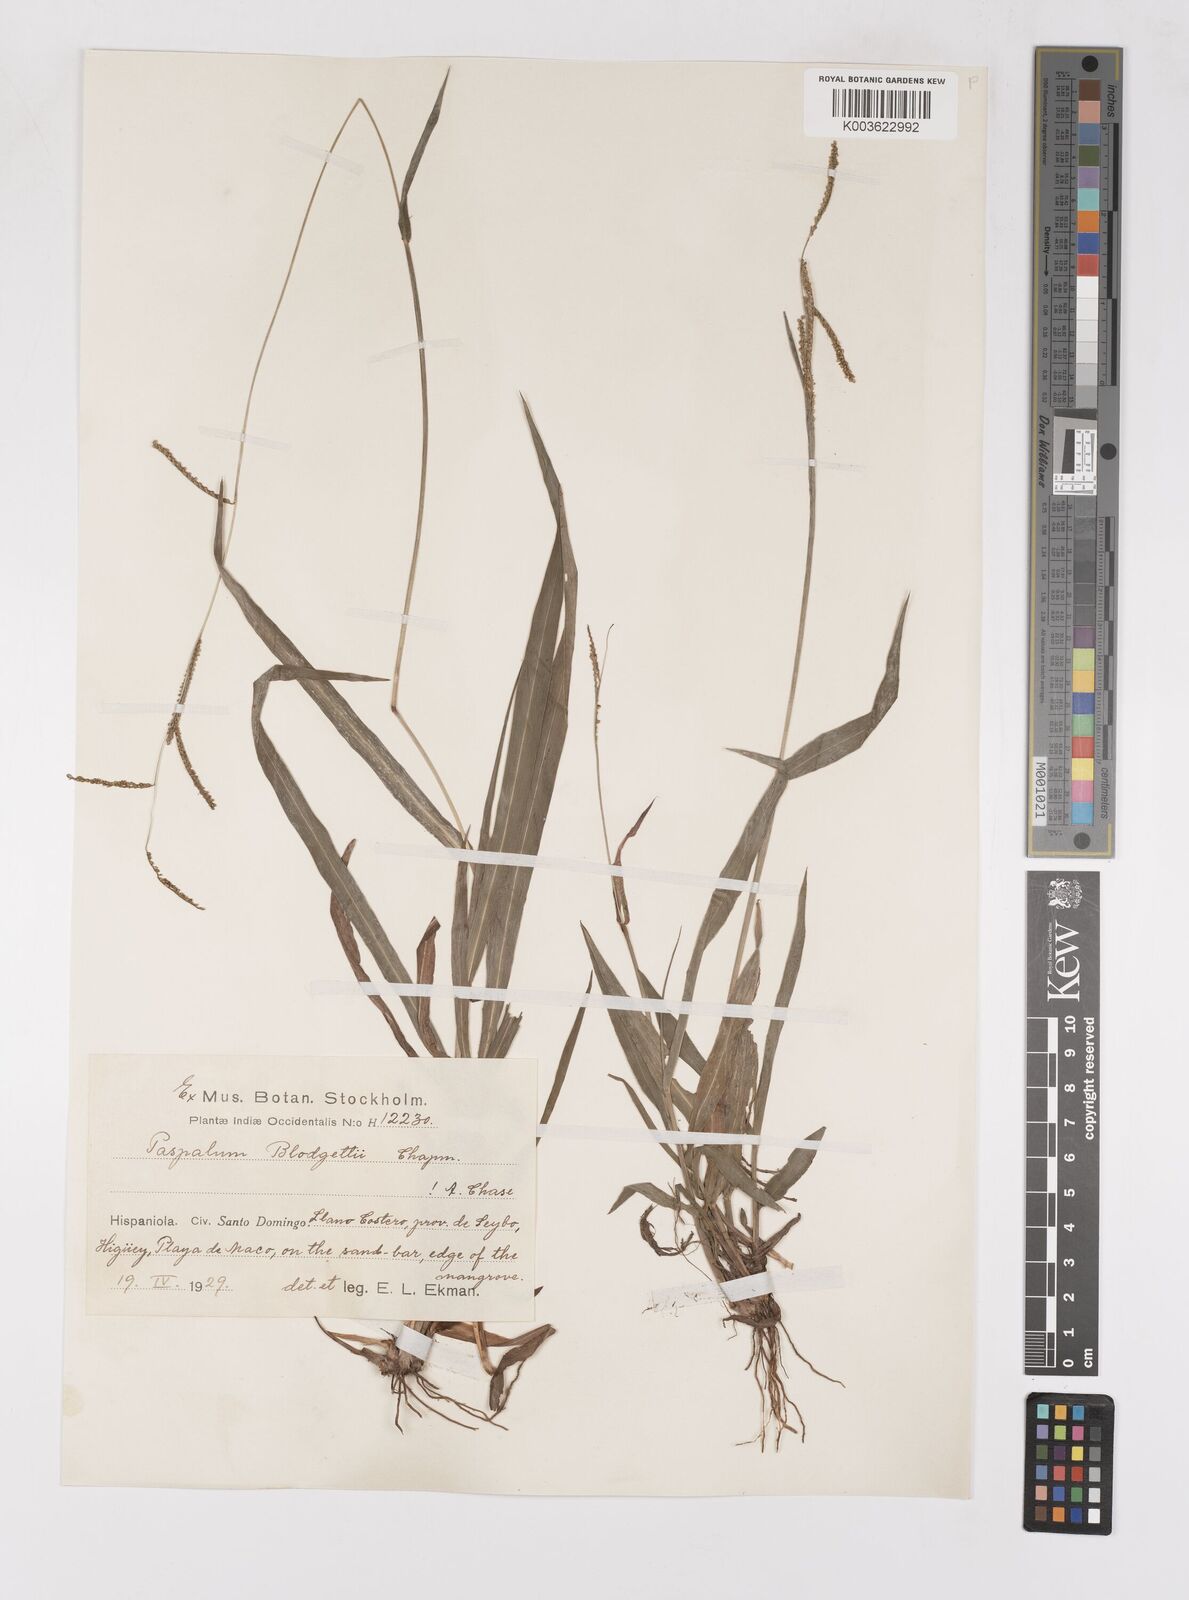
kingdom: Plantae
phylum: Tracheophyta
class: Liliopsida
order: Poales
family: Poaceae
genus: Paspalum
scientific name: Paspalum blodgettii
